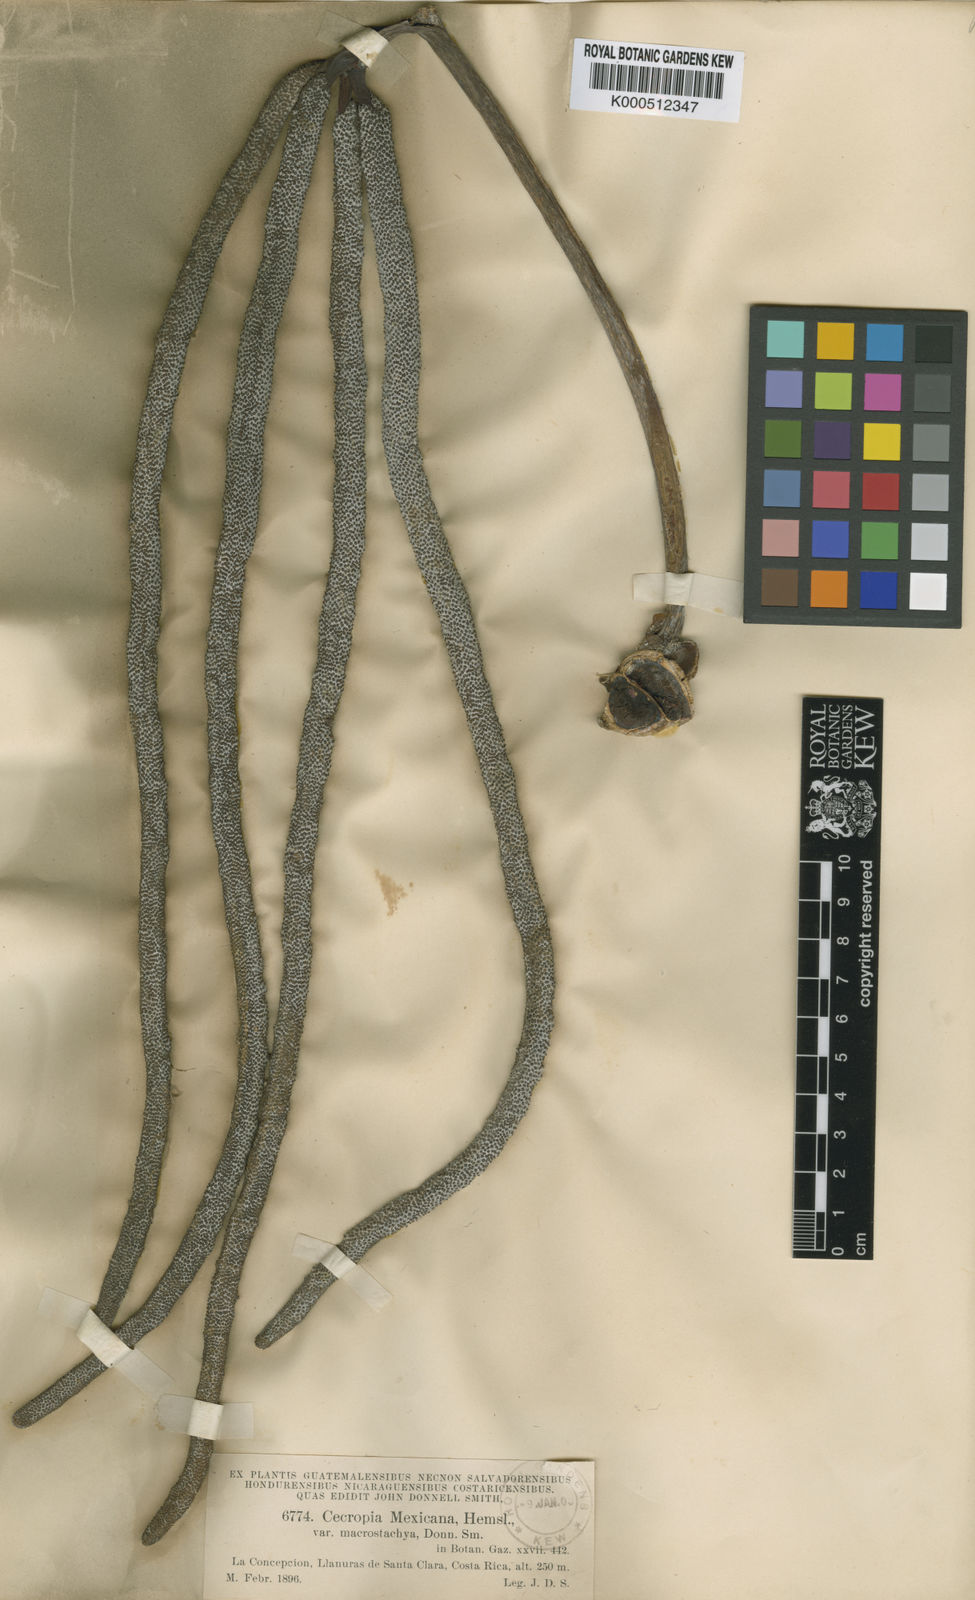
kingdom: Plantae
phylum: Tracheophyta
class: Magnoliopsida
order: Rosales
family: Urticaceae
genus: Cecropia
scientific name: Cecropia obtusifolia
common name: Trumpet tree
